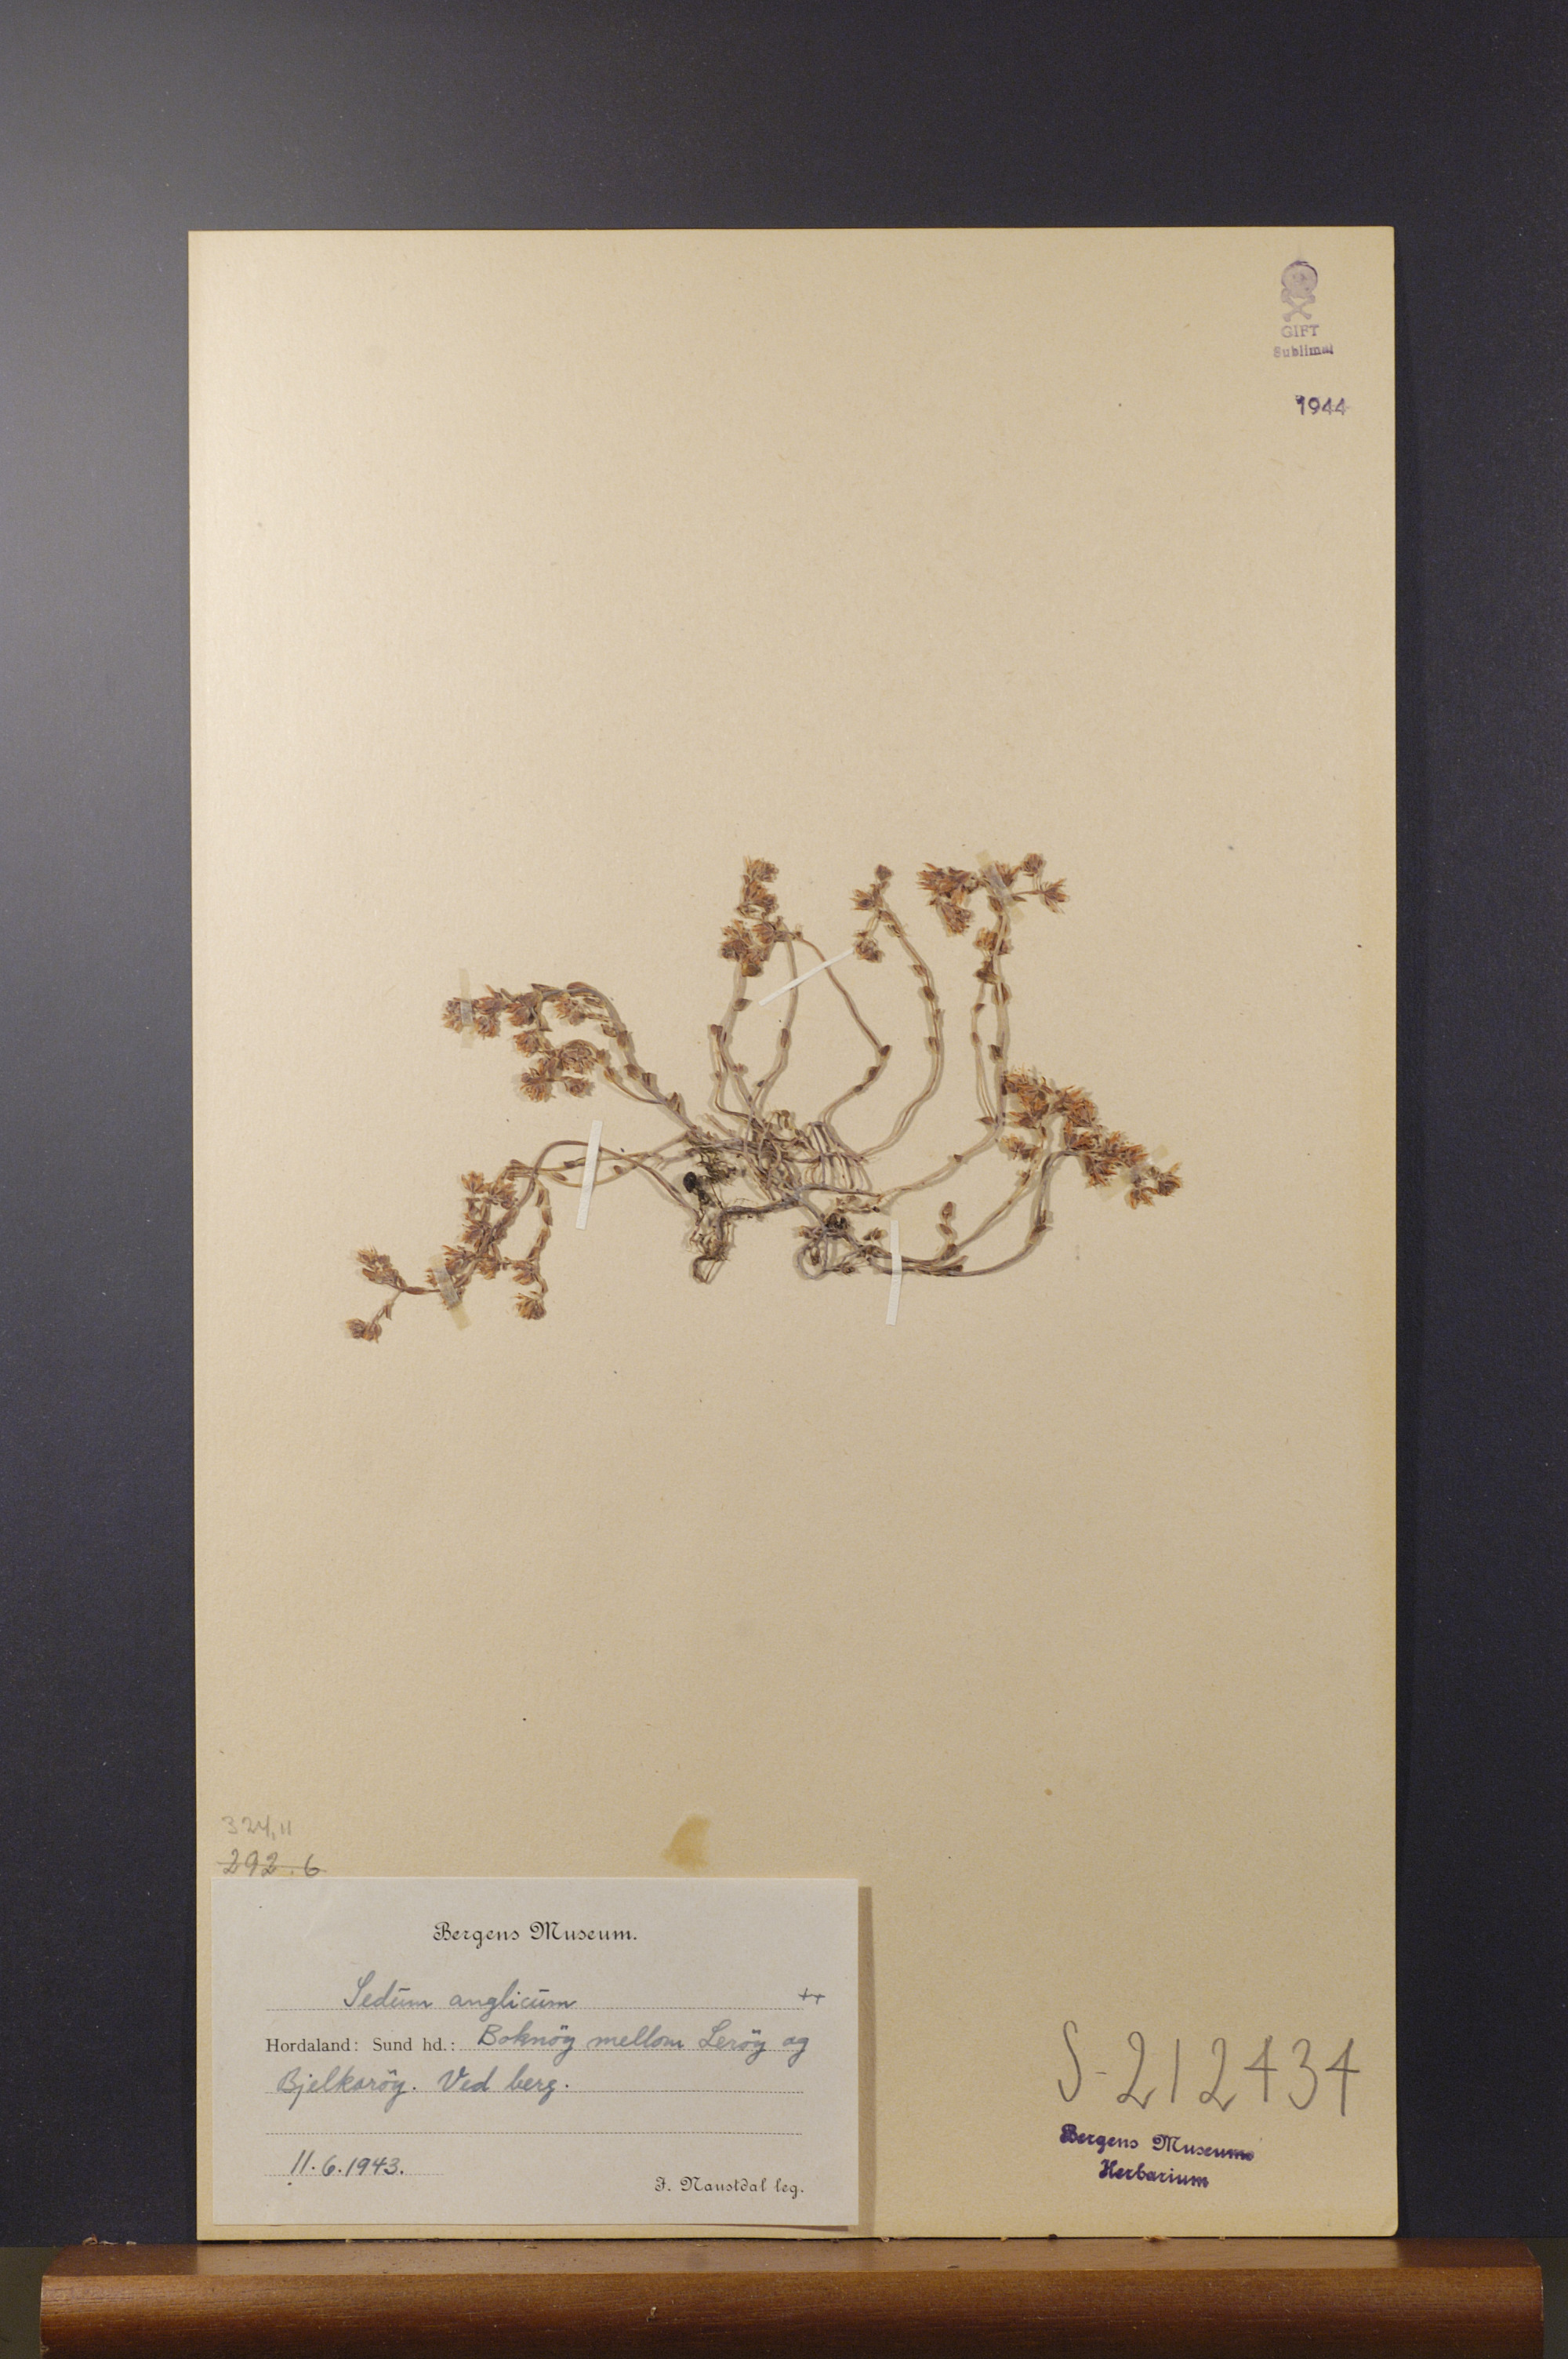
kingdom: Plantae
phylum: Tracheophyta
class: Magnoliopsida
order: Saxifragales
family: Crassulaceae
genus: Sedum
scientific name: Sedum anglicum
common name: English stonecrop
